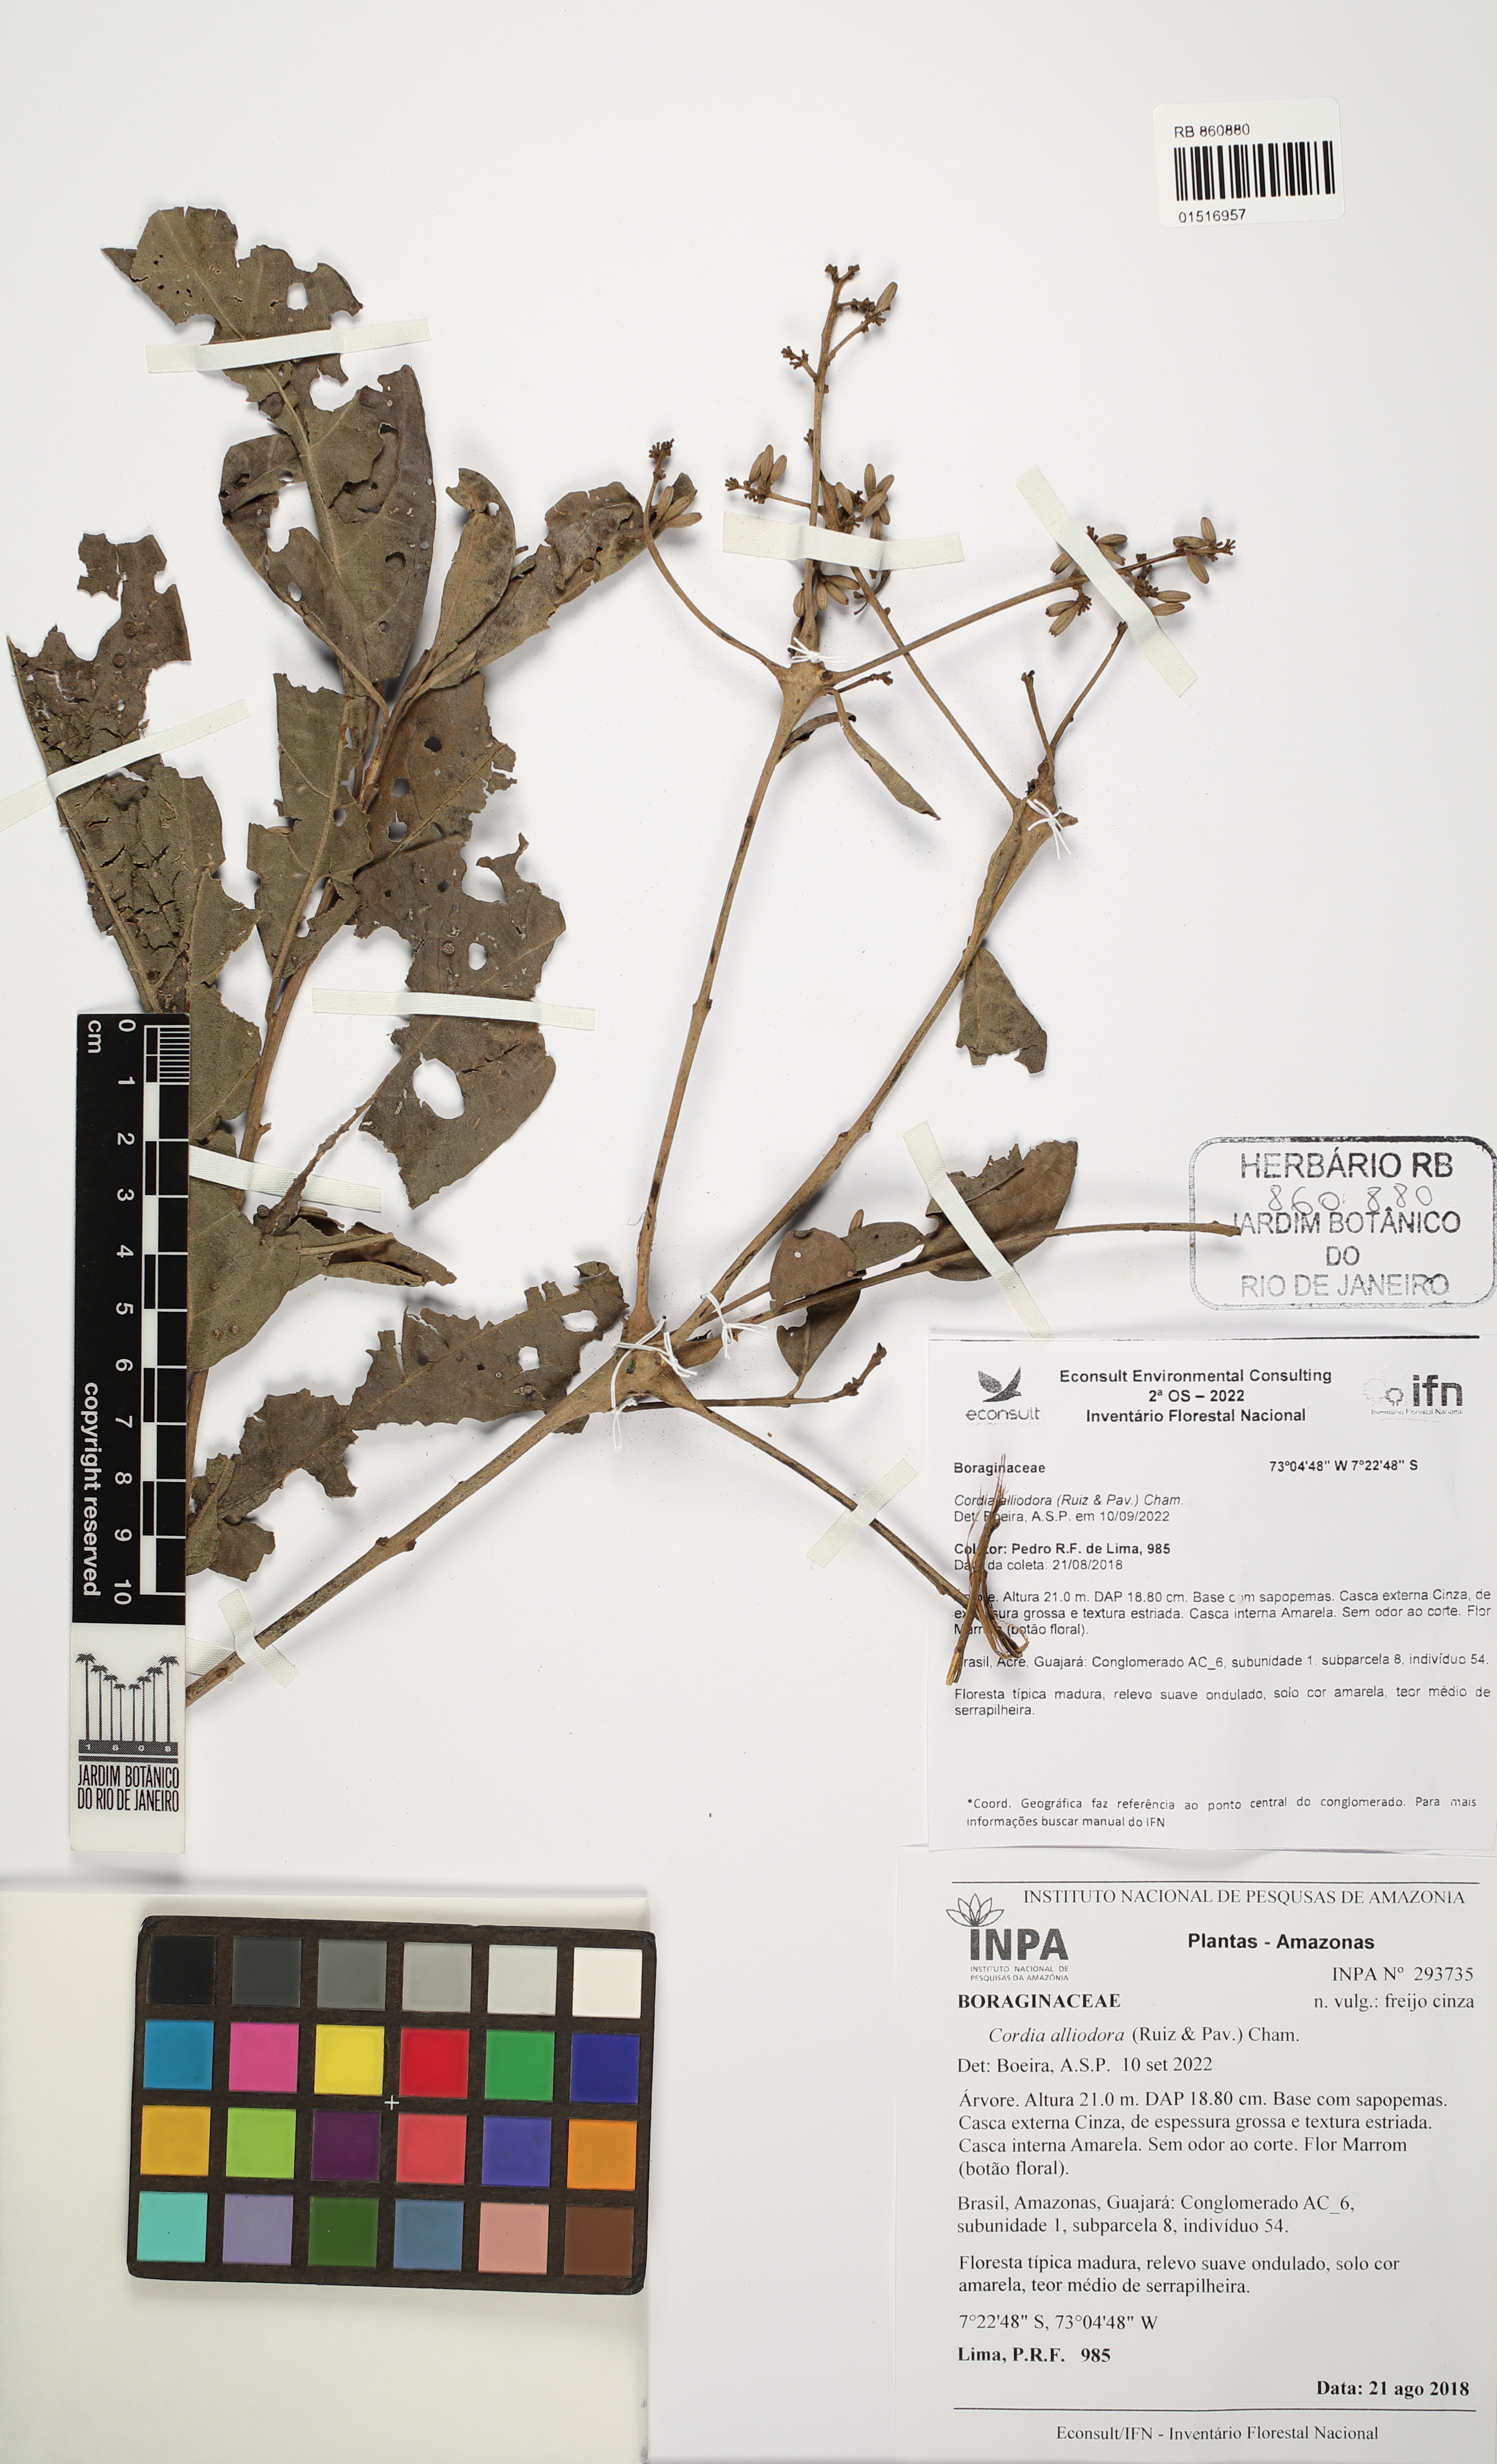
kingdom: Plantae
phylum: Tracheophyta
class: Magnoliopsida
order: Boraginales
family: Cordiaceae
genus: Cordia
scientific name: Cordia alliodora
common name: Spanish elm
